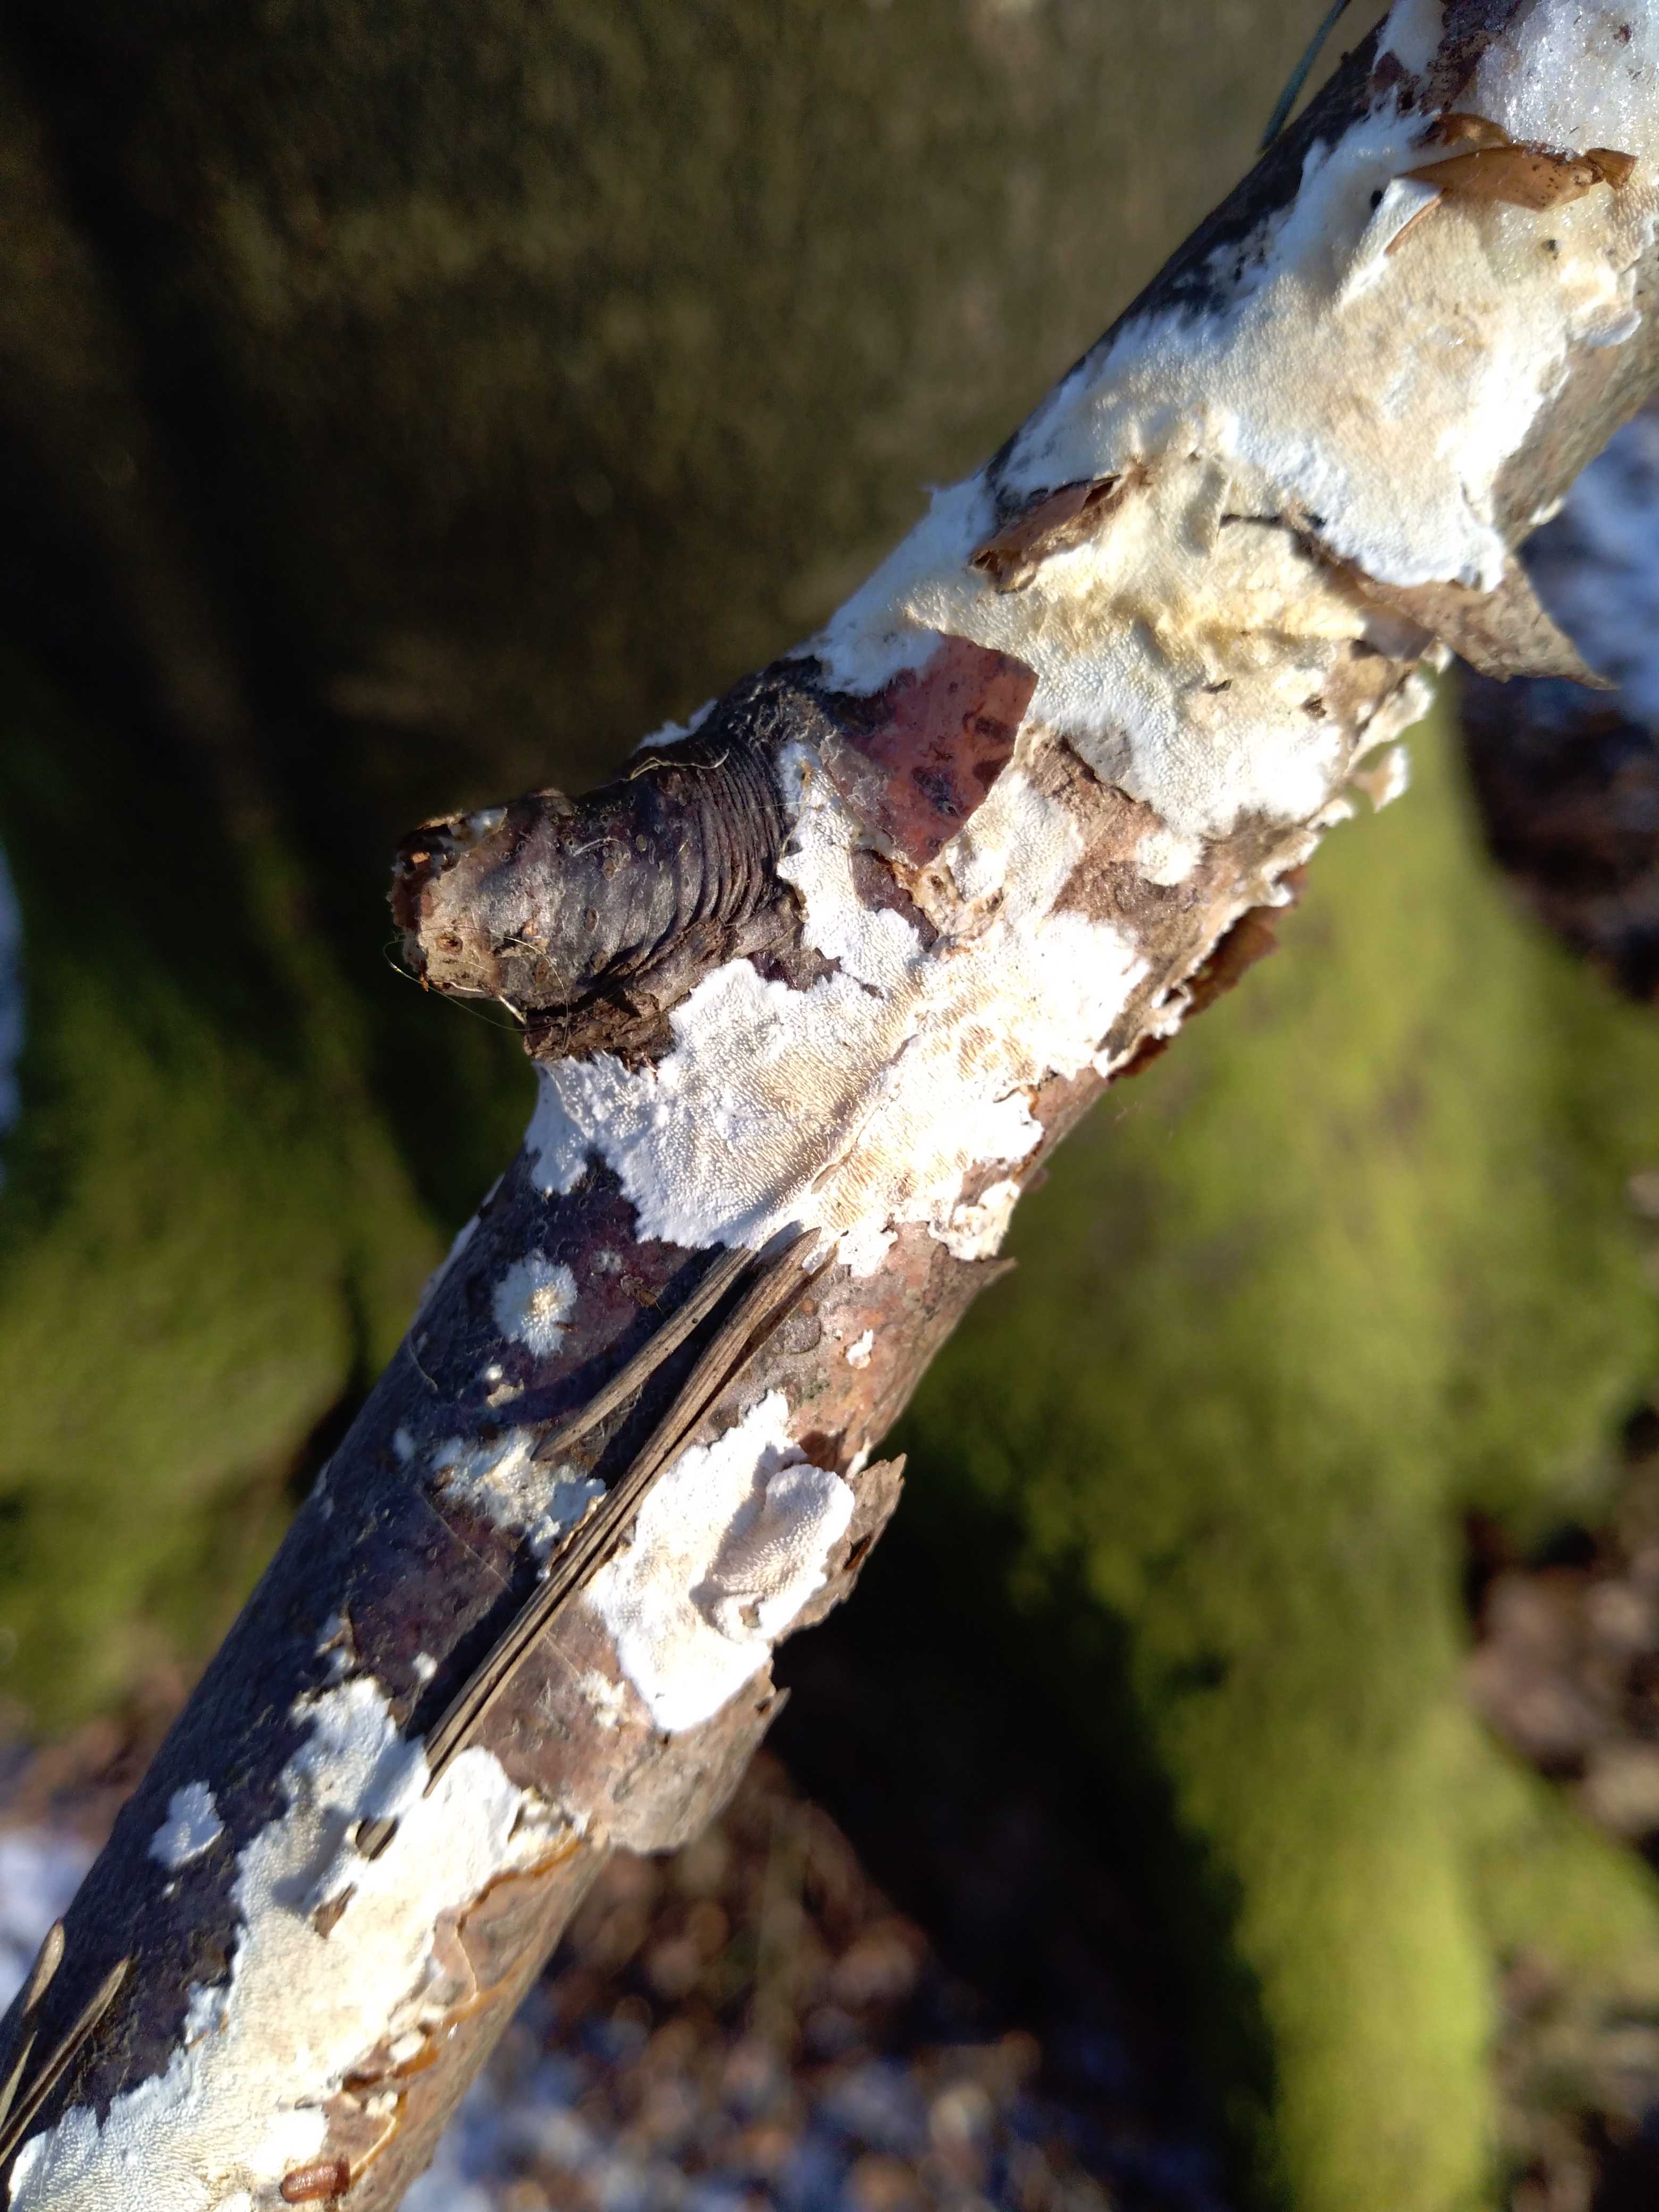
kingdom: Fungi
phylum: Basidiomycota
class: Agaricomycetes
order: Polyporales
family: Steccherinaceae
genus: Steccherinum
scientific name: Steccherinum ochraceum
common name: almindelig skønpig
